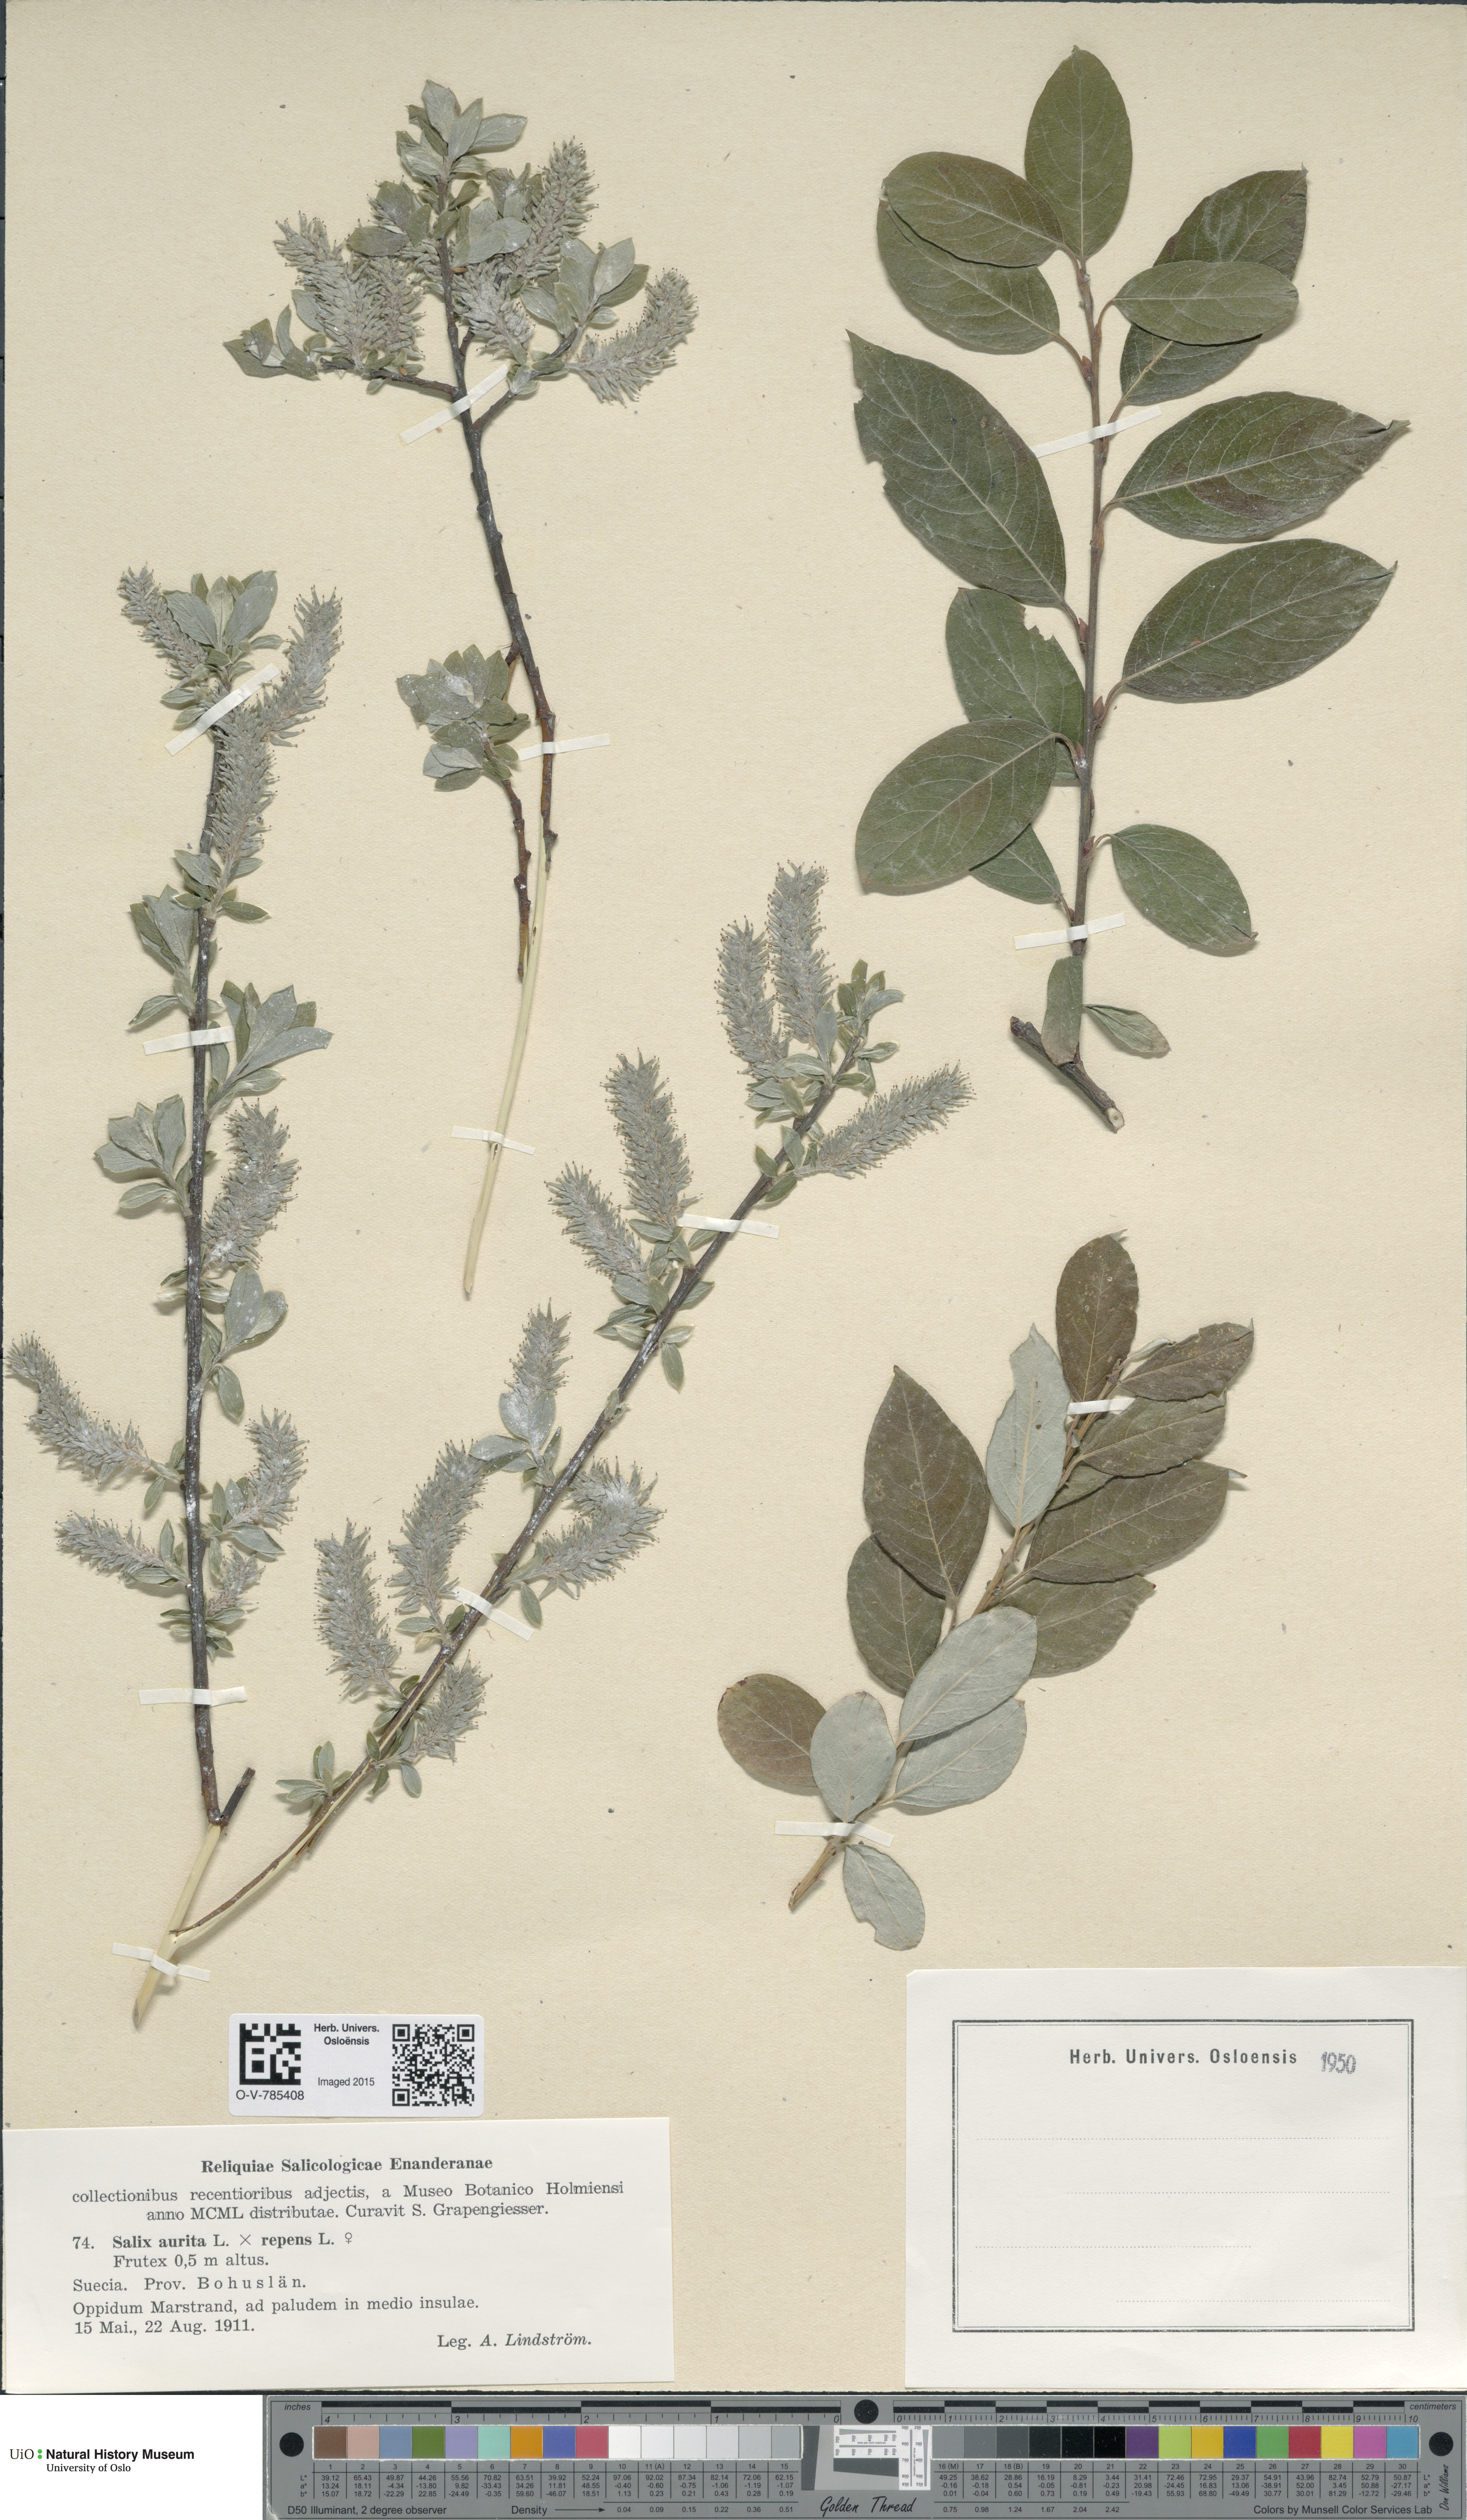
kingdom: Plantae
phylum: Tracheophyta
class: Magnoliopsida
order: Malpighiales
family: Salicaceae
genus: Salix
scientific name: Salix
